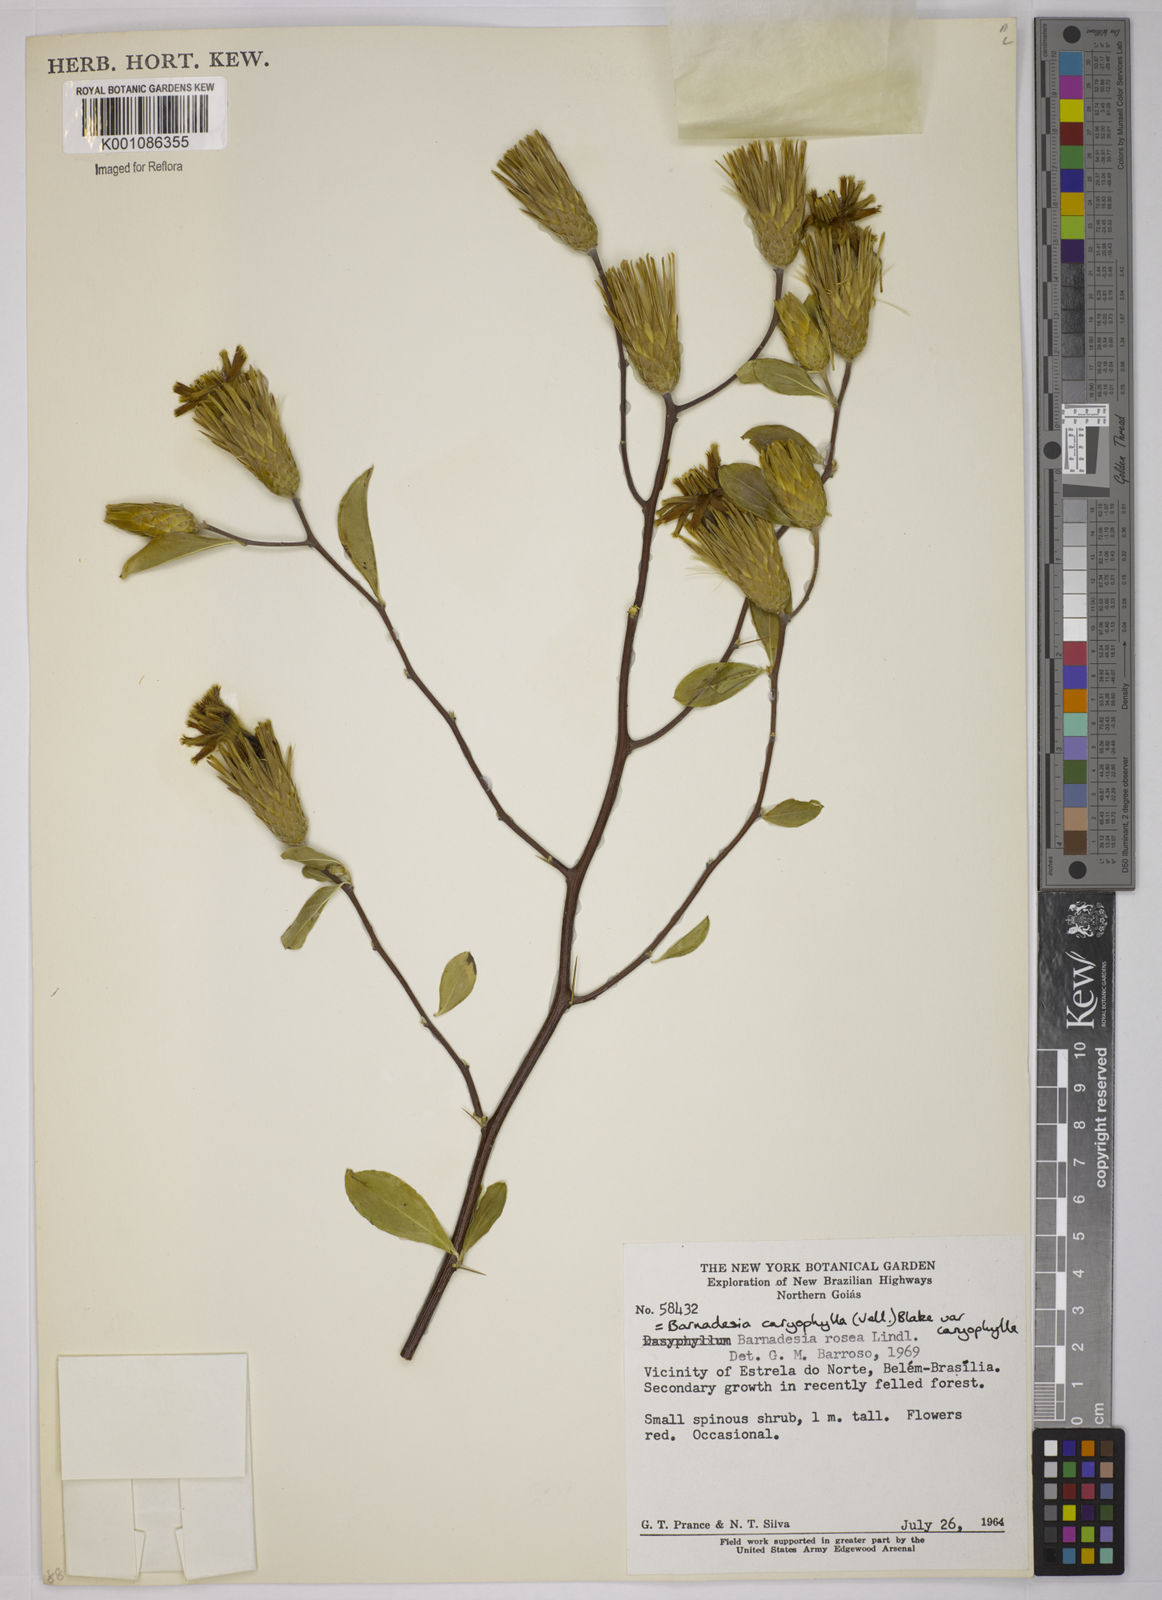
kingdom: Plantae
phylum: Tracheophyta
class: Magnoliopsida
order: Asterales
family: Asteraceae
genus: Barnadesia
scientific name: Barnadesia caryophylla
